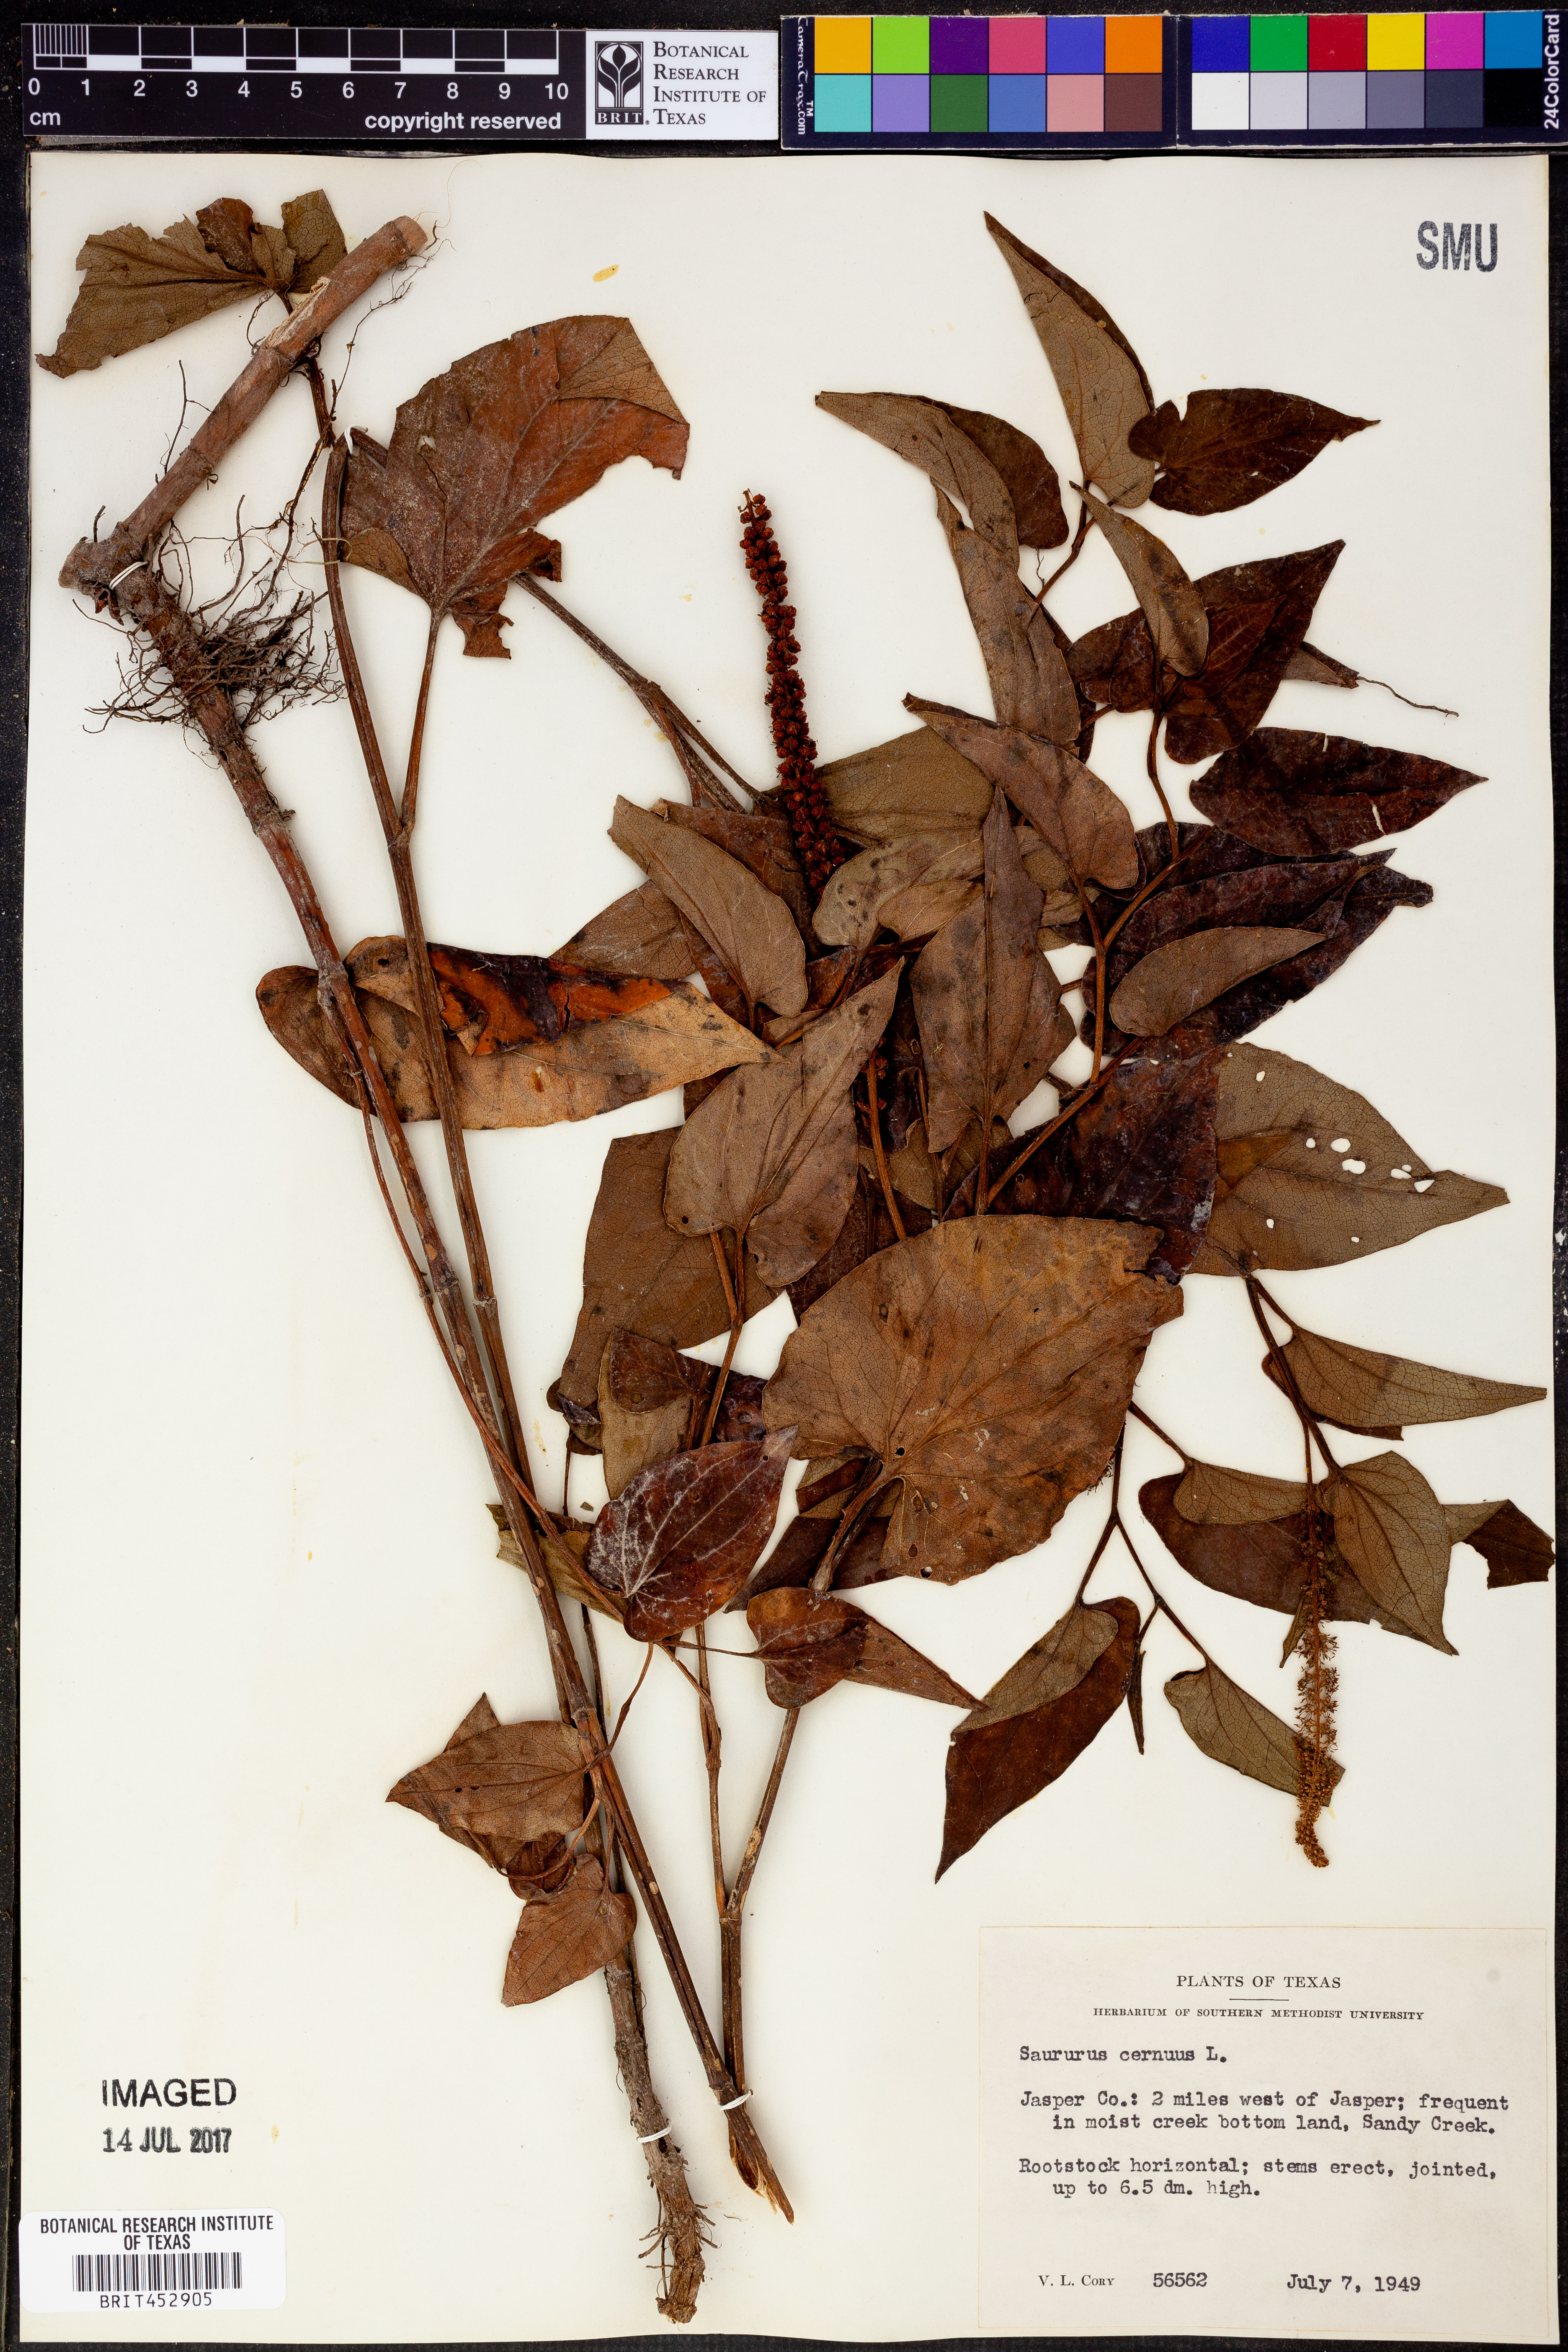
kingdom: Plantae
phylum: Tracheophyta
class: Magnoliopsida
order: Piperales
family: Saururaceae
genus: Saururus
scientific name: Saururus cernuus
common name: Lizard's-tail
